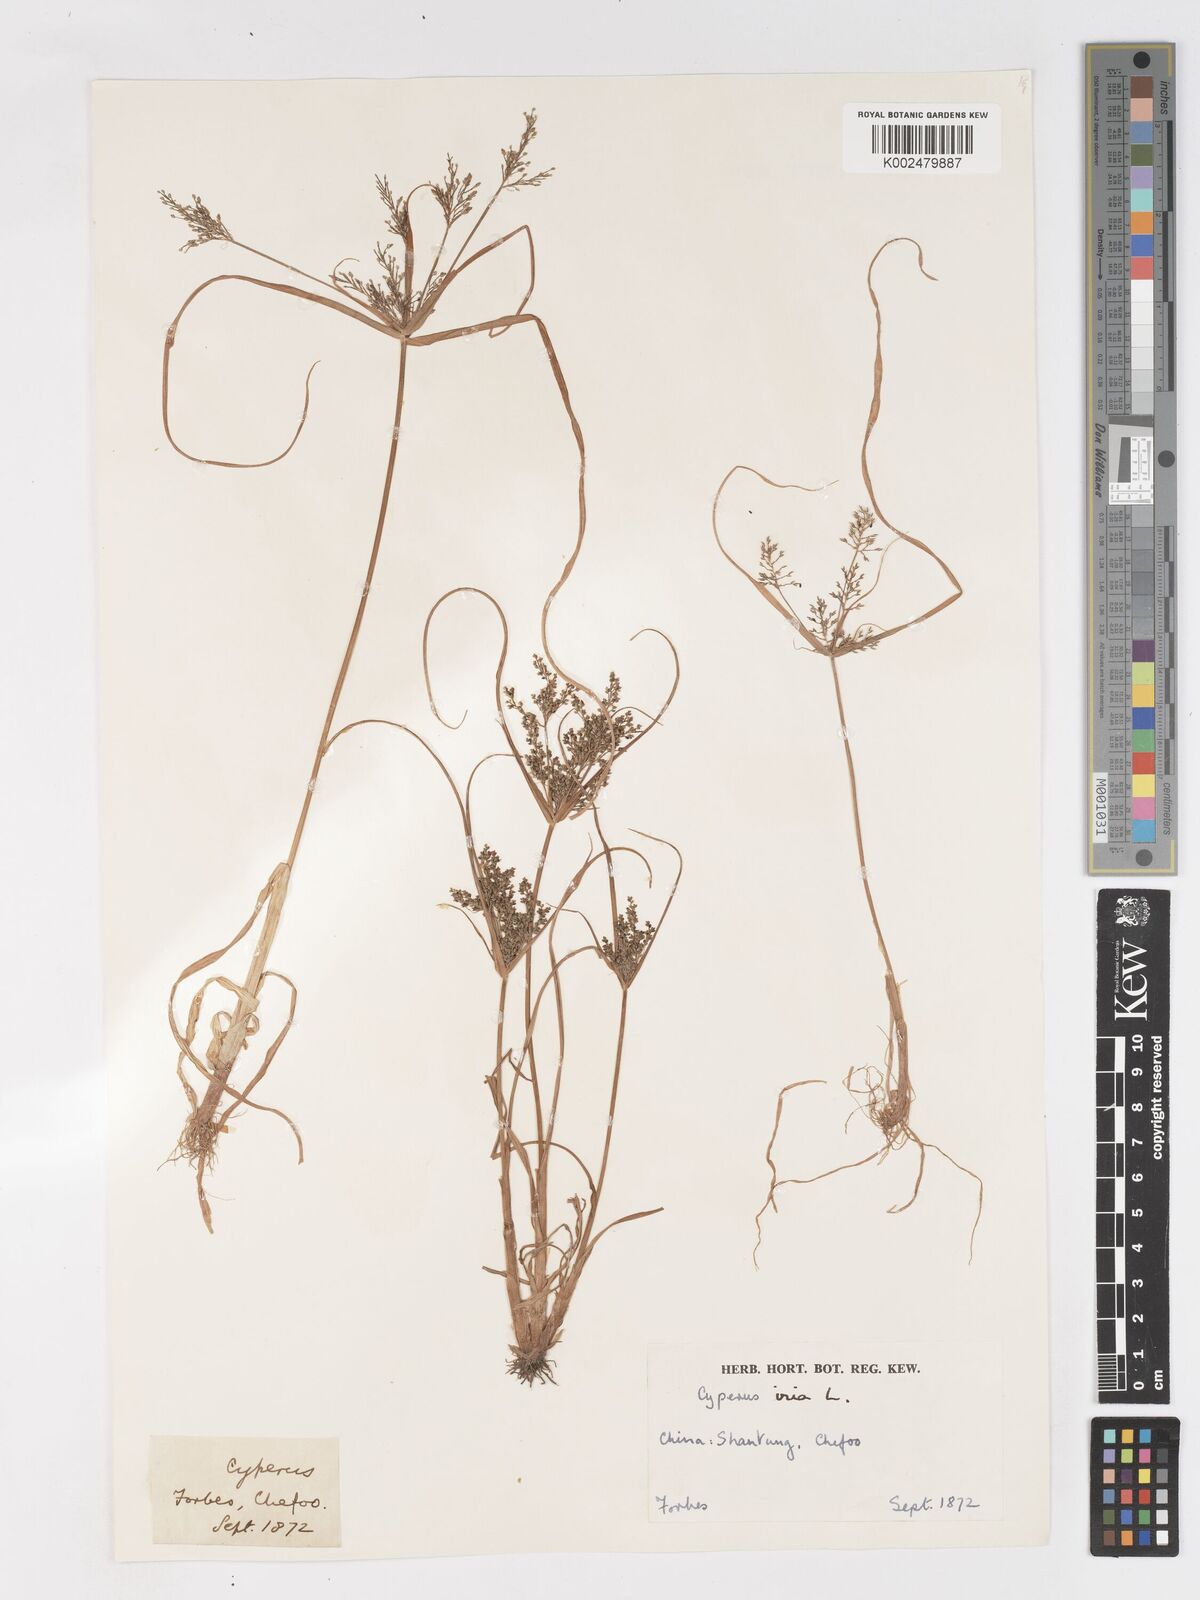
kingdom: Plantae
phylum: Tracheophyta
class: Liliopsida
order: Poales
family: Cyperaceae
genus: Cyperus
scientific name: Cyperus iria
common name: Ricefield flatsedge
